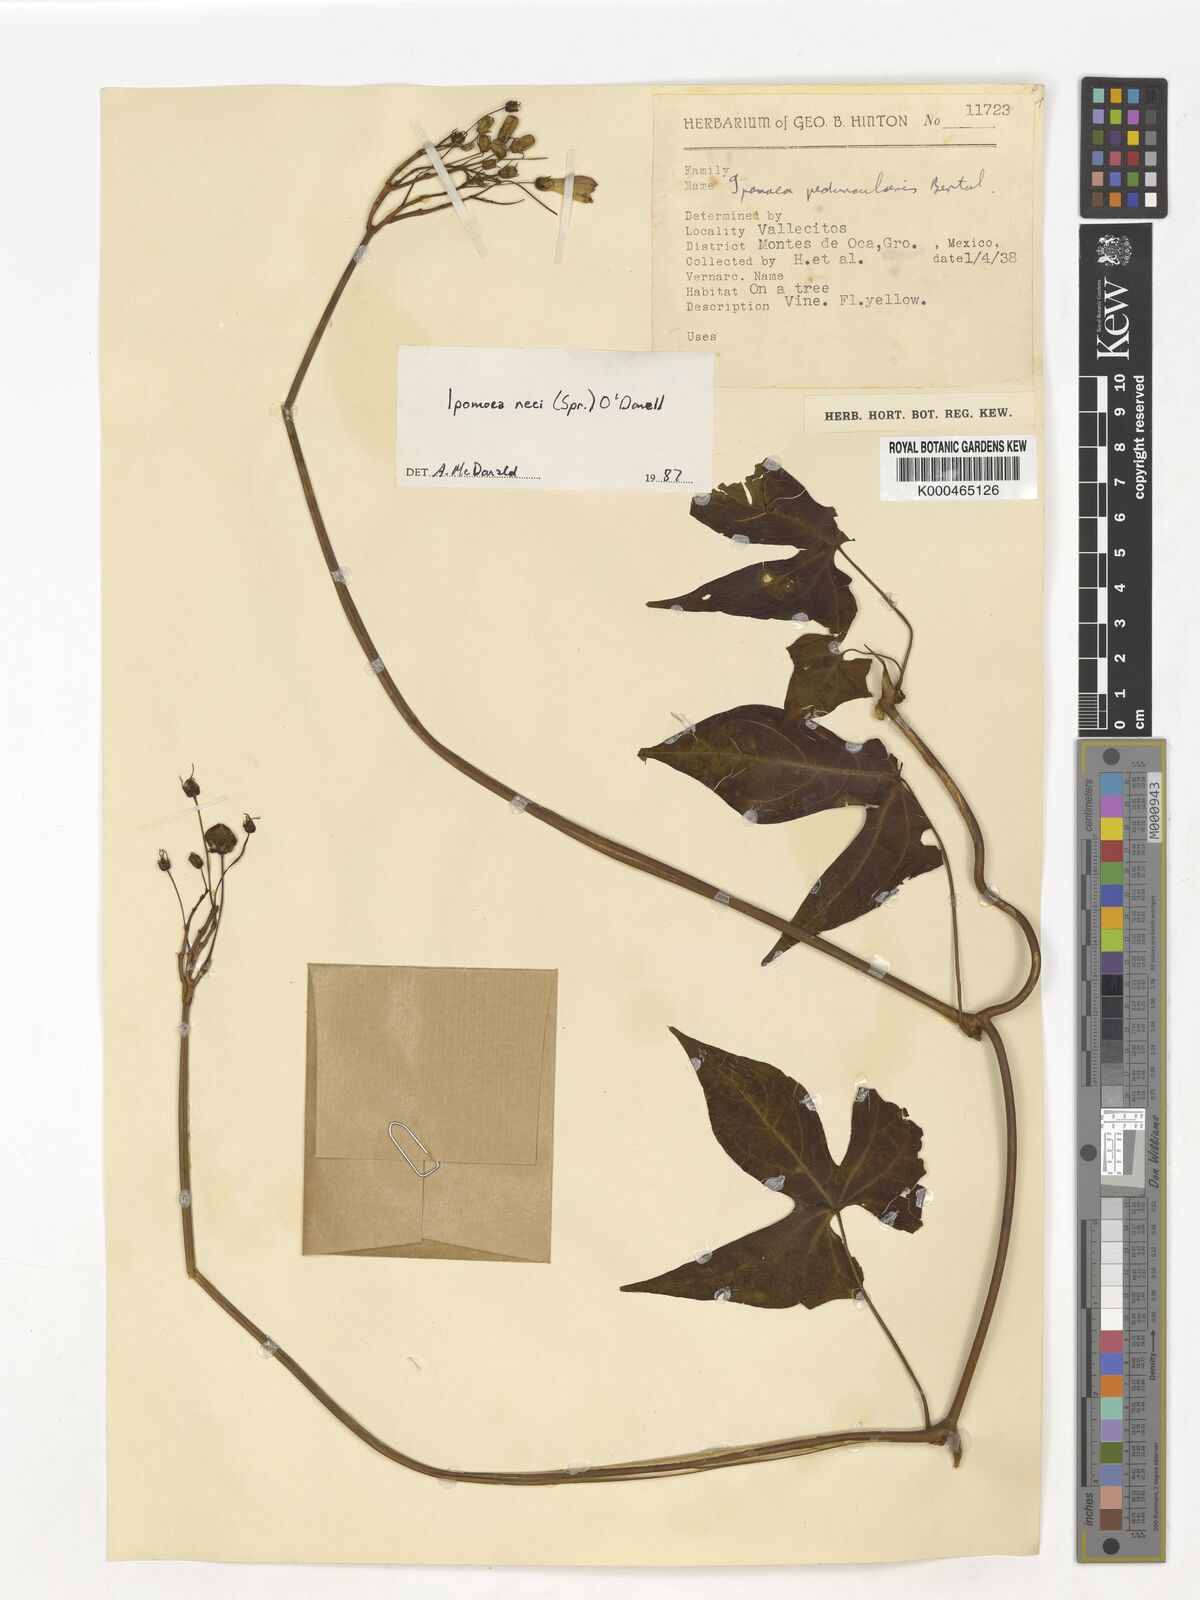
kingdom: Plantae
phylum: Tracheophyta
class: Magnoliopsida
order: Solanales
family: Convolvulaceae
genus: Ipomoea
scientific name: Ipomoea
